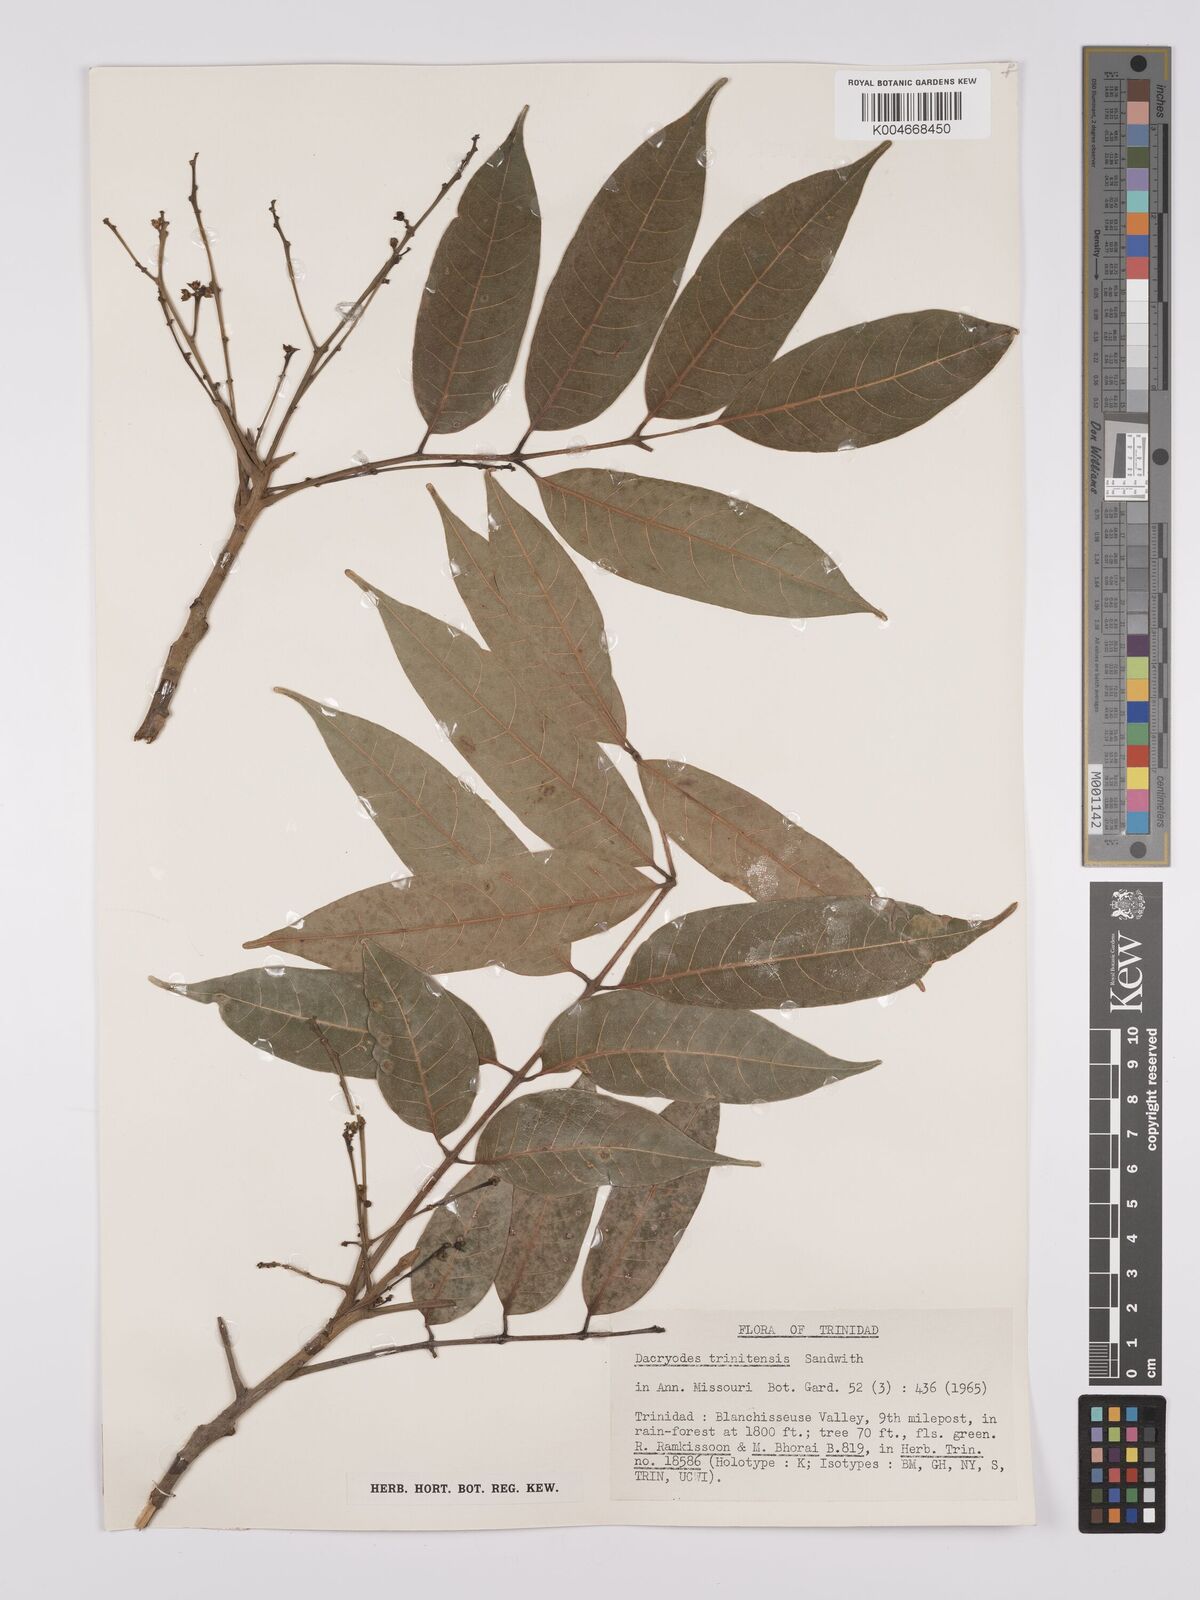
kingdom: Plantae
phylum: Tracheophyta
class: Magnoliopsida
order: Sapindales
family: Burseraceae
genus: Dacryodes
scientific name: Dacryodes belemensis
